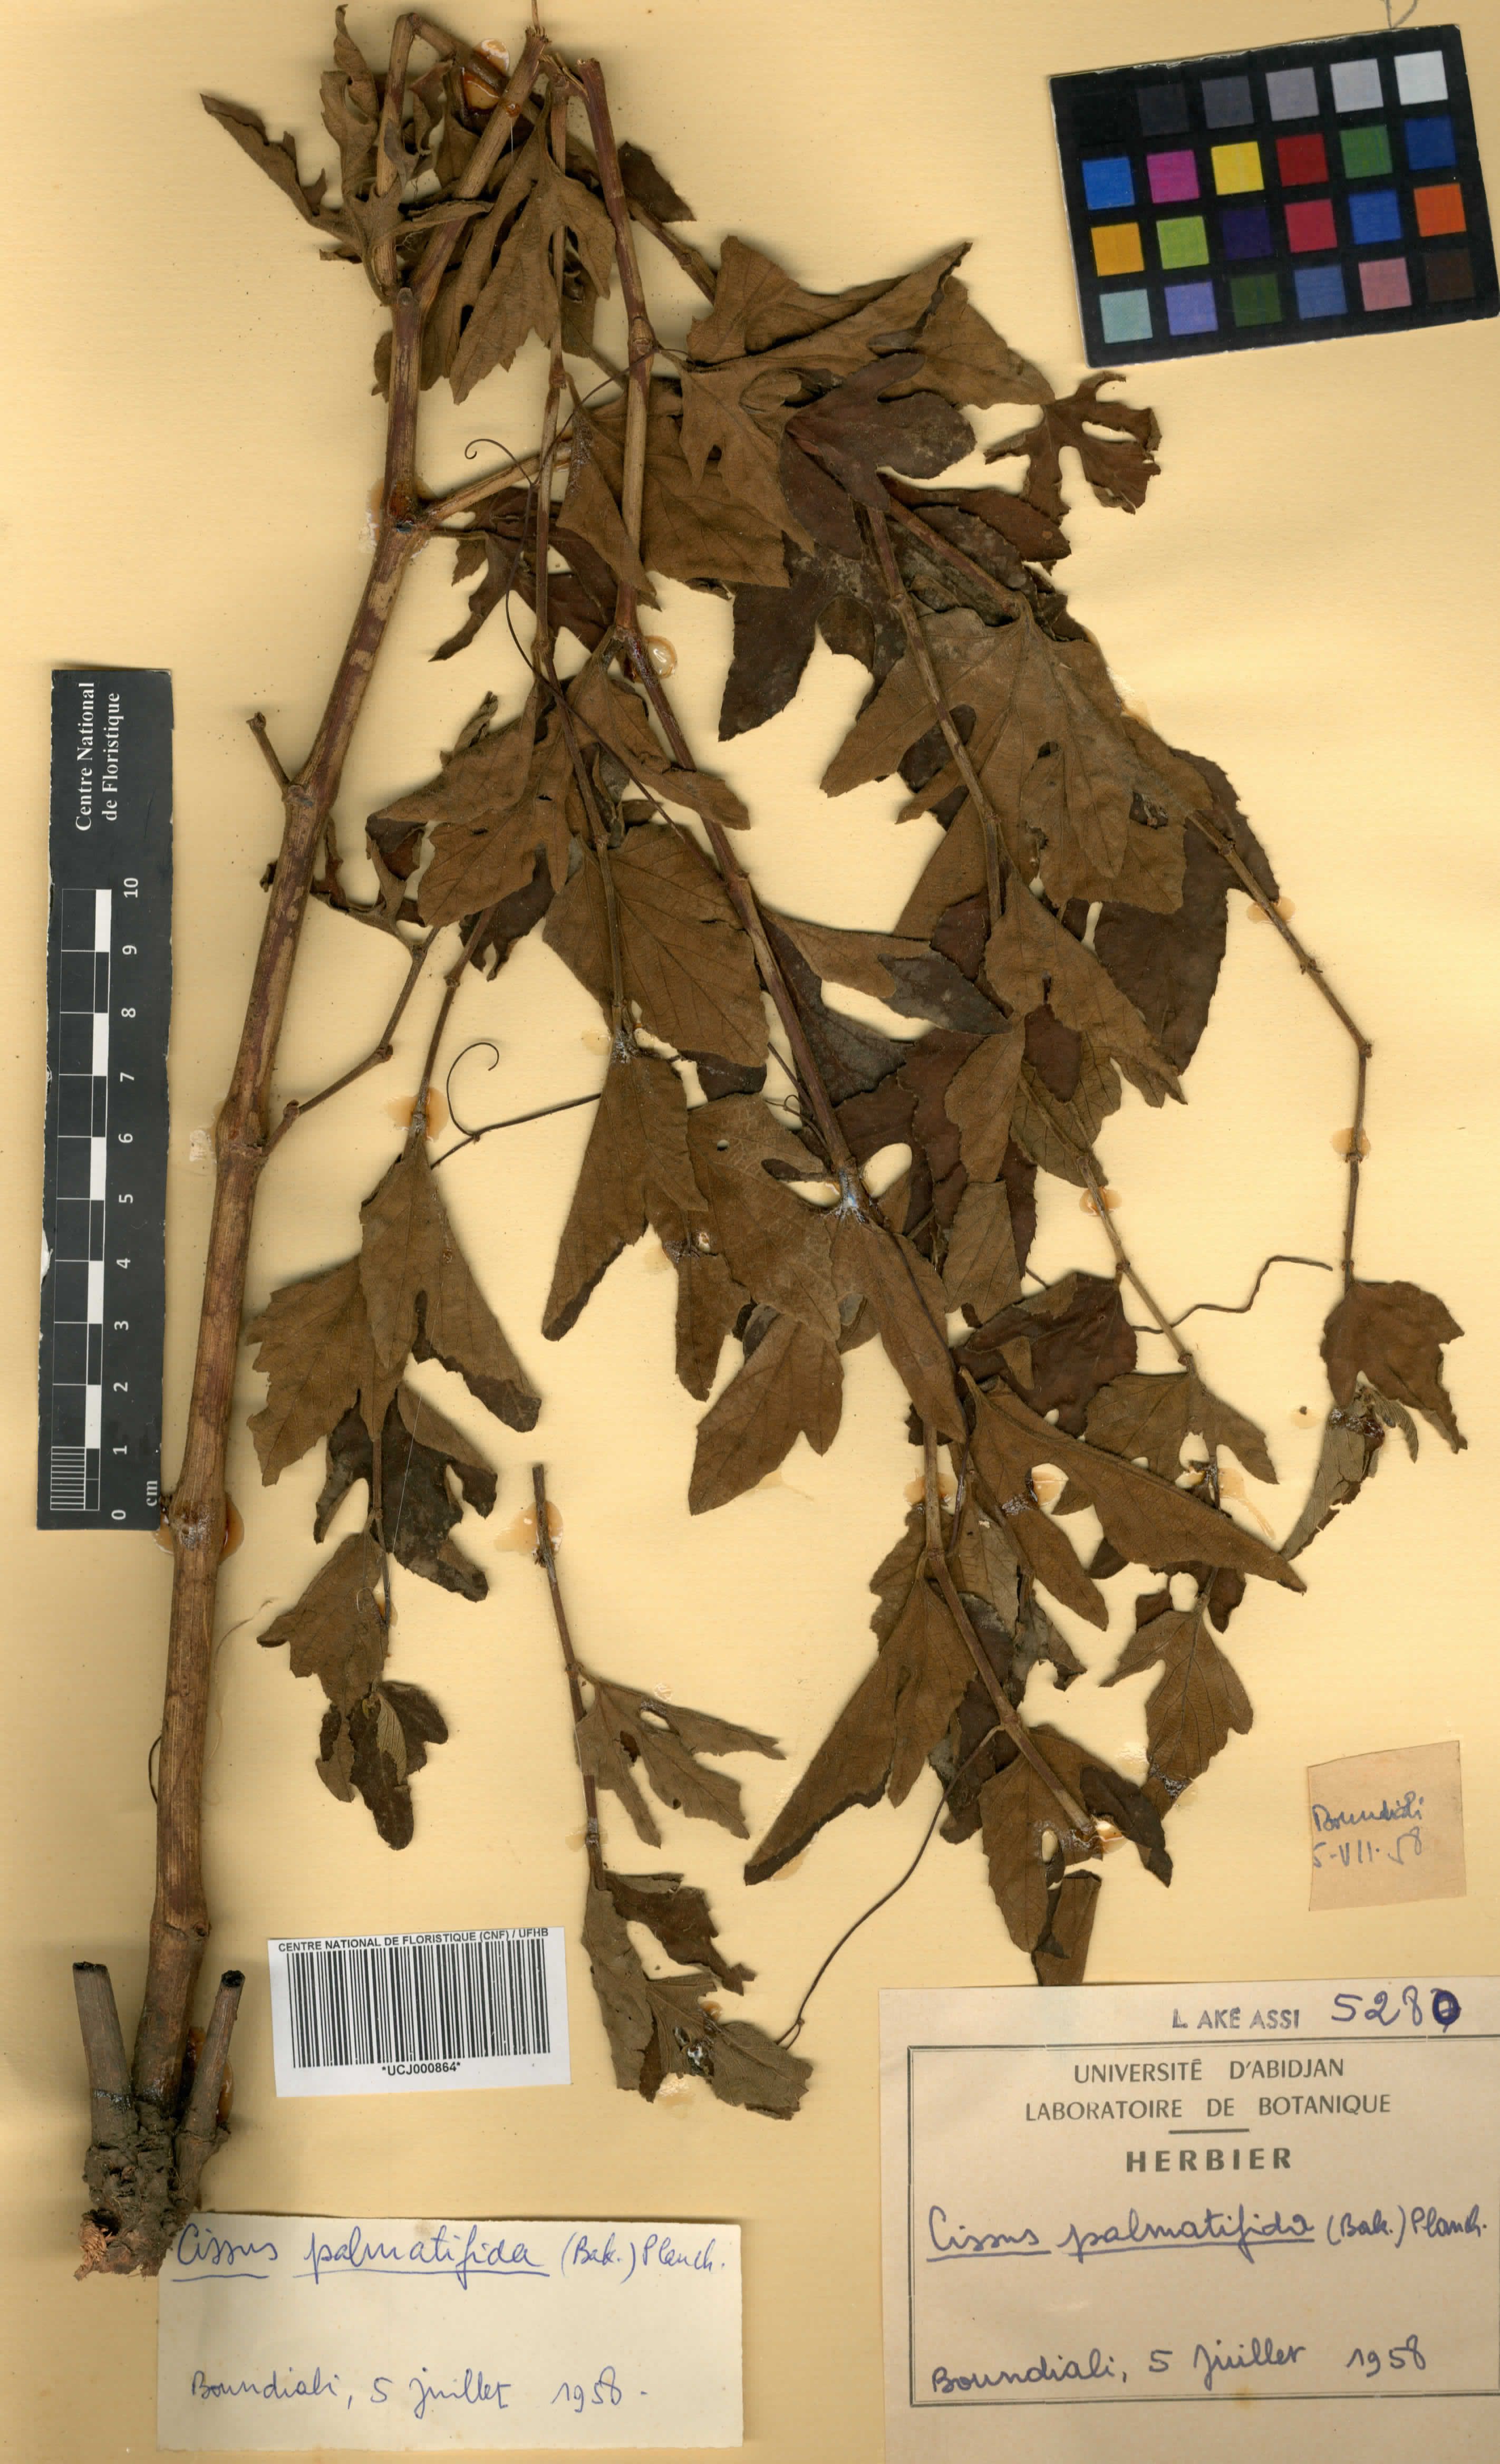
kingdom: Plantae
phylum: Tracheophyta
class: Magnoliopsida
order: Vitales
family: Vitaceae
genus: Cissus
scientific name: Cissus palmatifida
